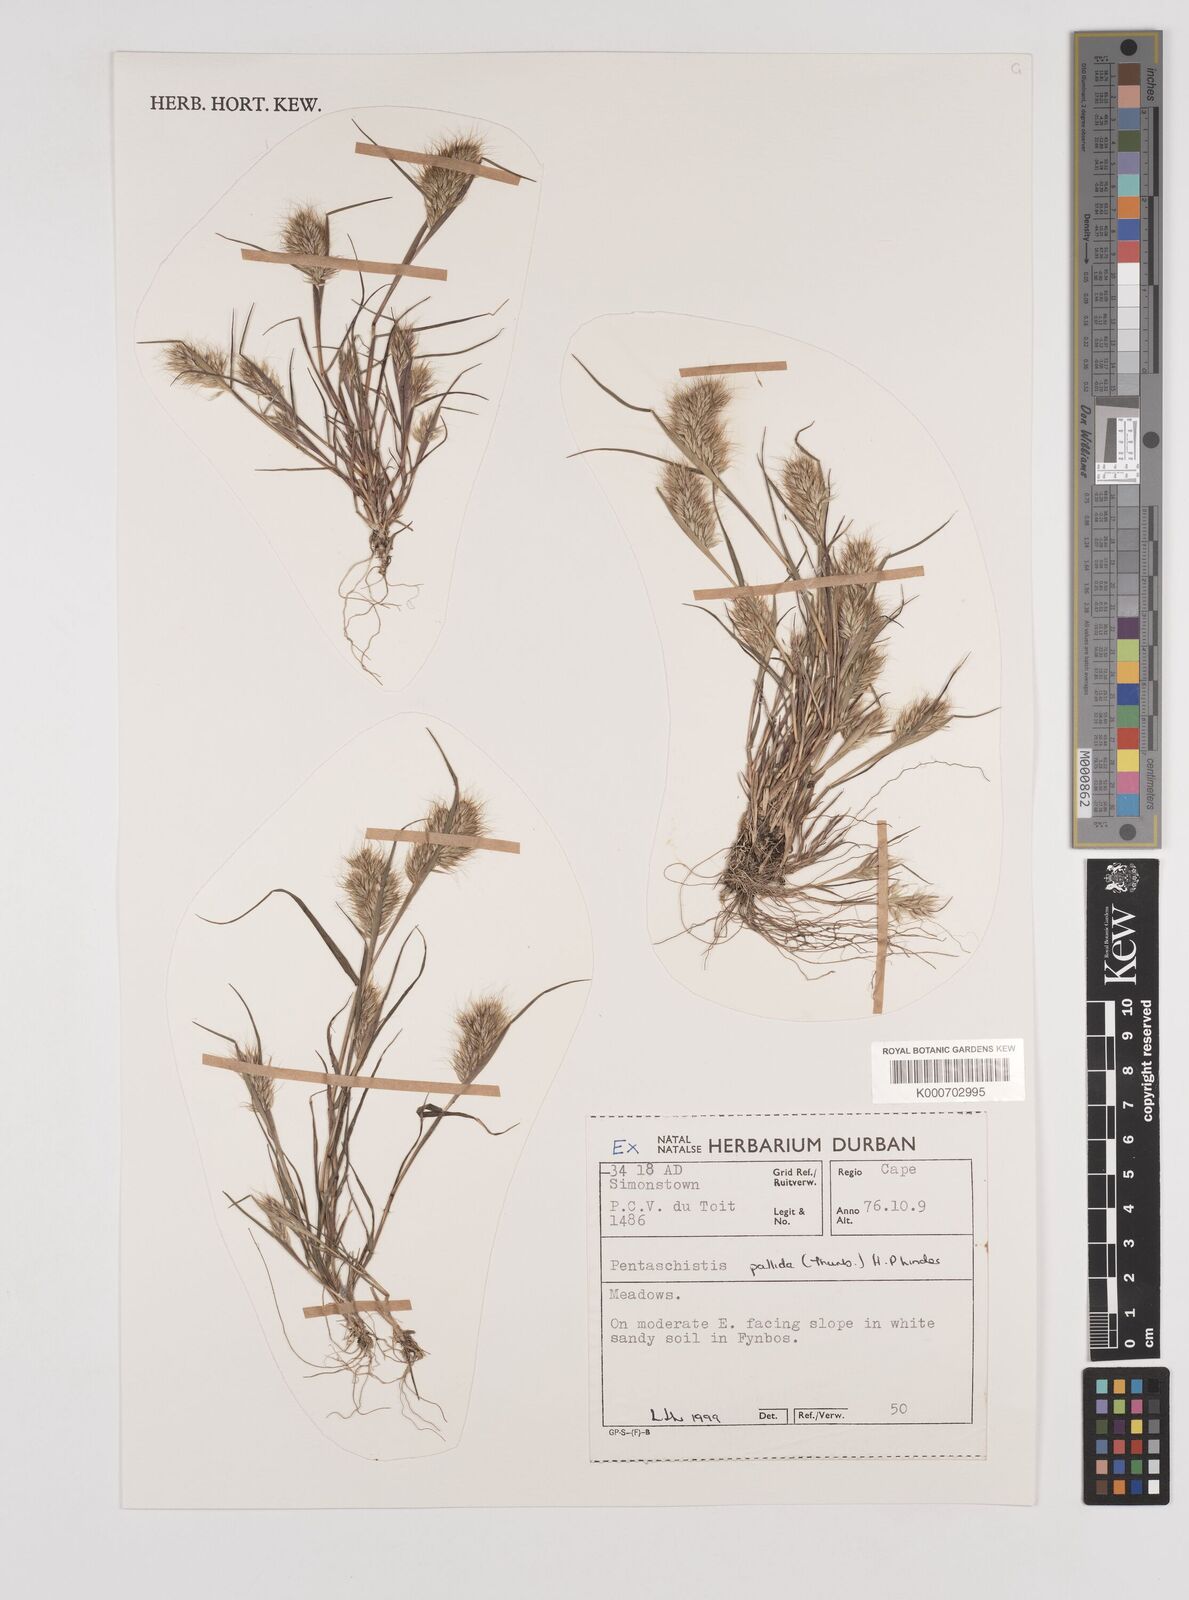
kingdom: Plantae
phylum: Tracheophyta
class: Liliopsida
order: Poales
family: Poaceae
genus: Pentameris
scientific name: Pentameris pallida
